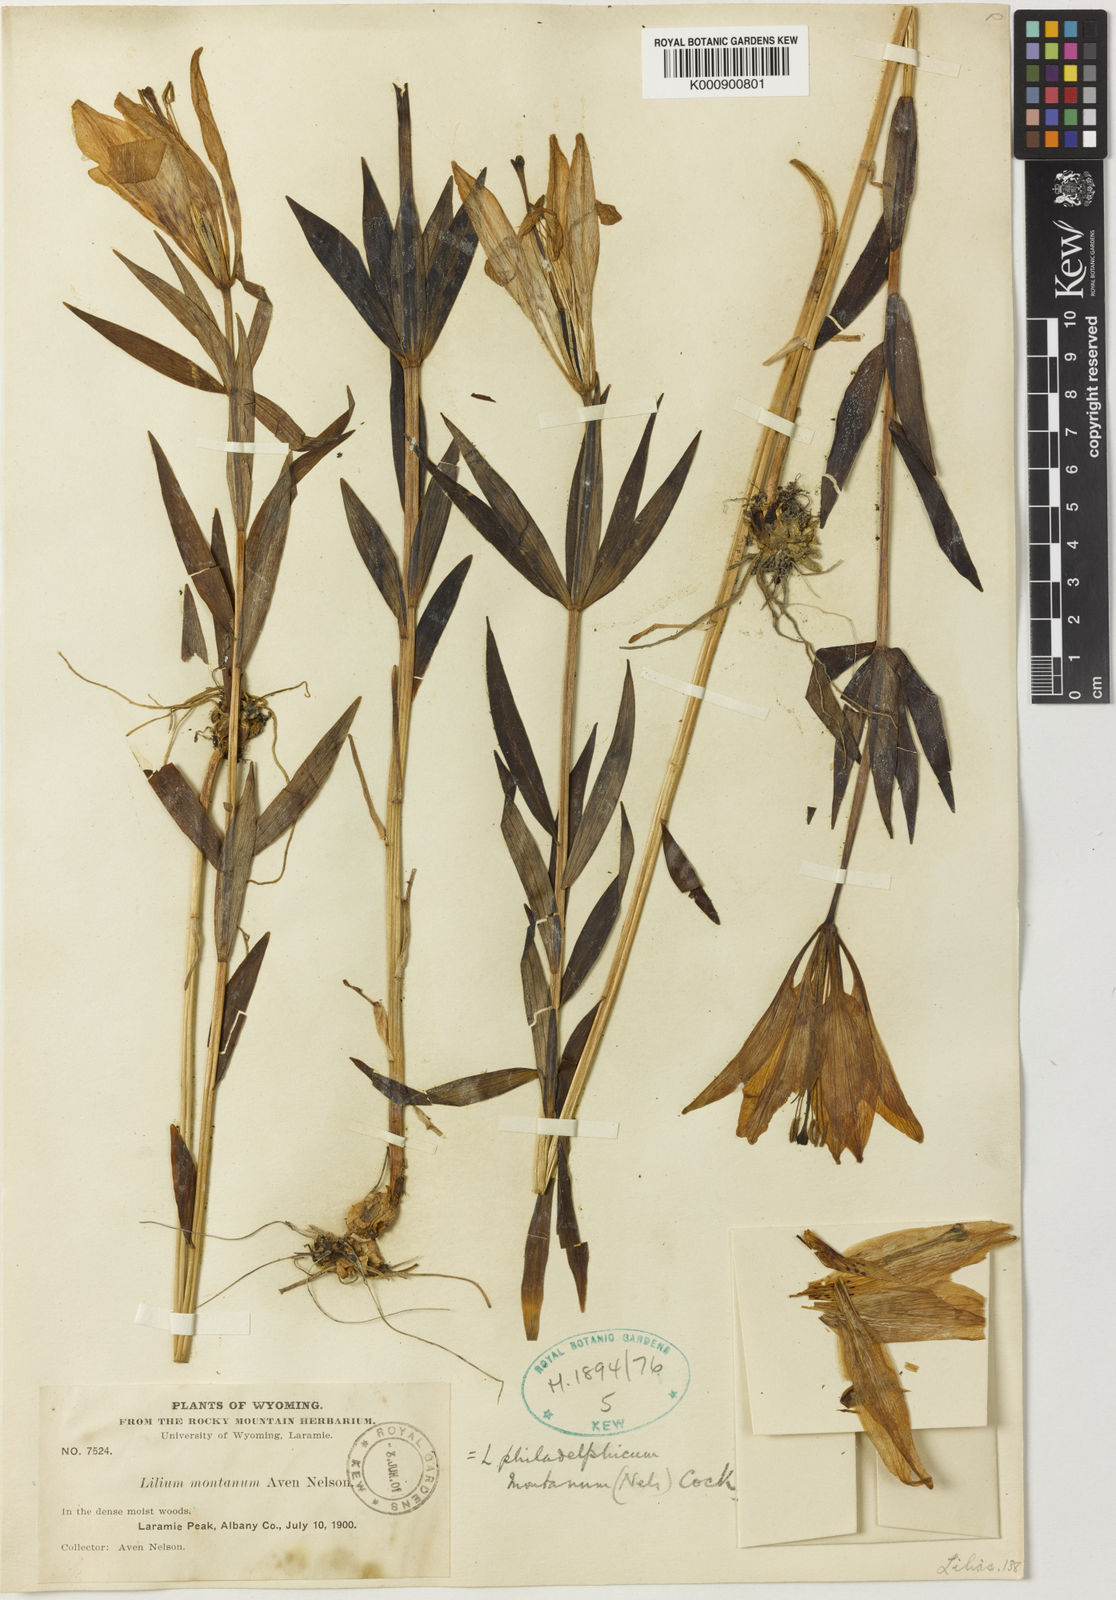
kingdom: Plantae
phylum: Tracheophyta
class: Liliopsida
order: Liliales
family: Liliaceae
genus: Lilium
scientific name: Lilium philadelphicum
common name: Red lily
